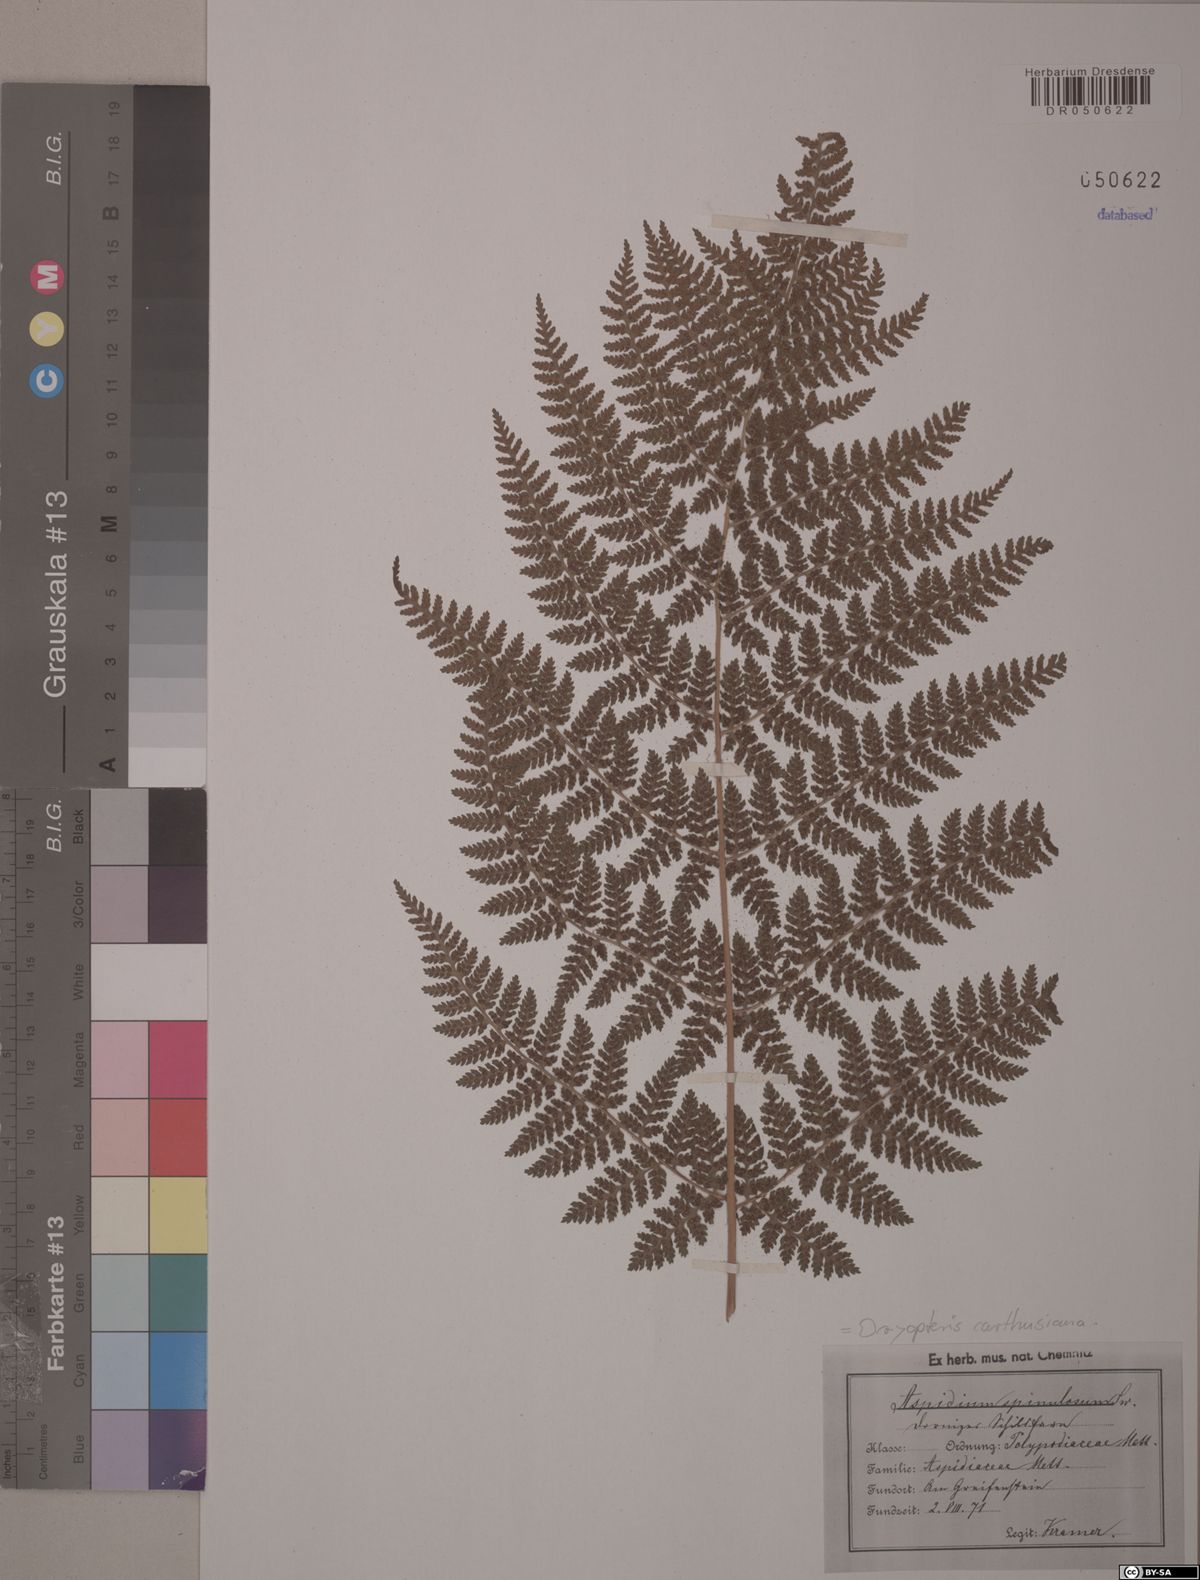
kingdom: Plantae
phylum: Tracheophyta
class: Polypodiopsida
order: Polypodiales
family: Dryopteridaceae
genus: Dryopteris
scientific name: Dryopteris carthusiana
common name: Narrow buckler-fern
